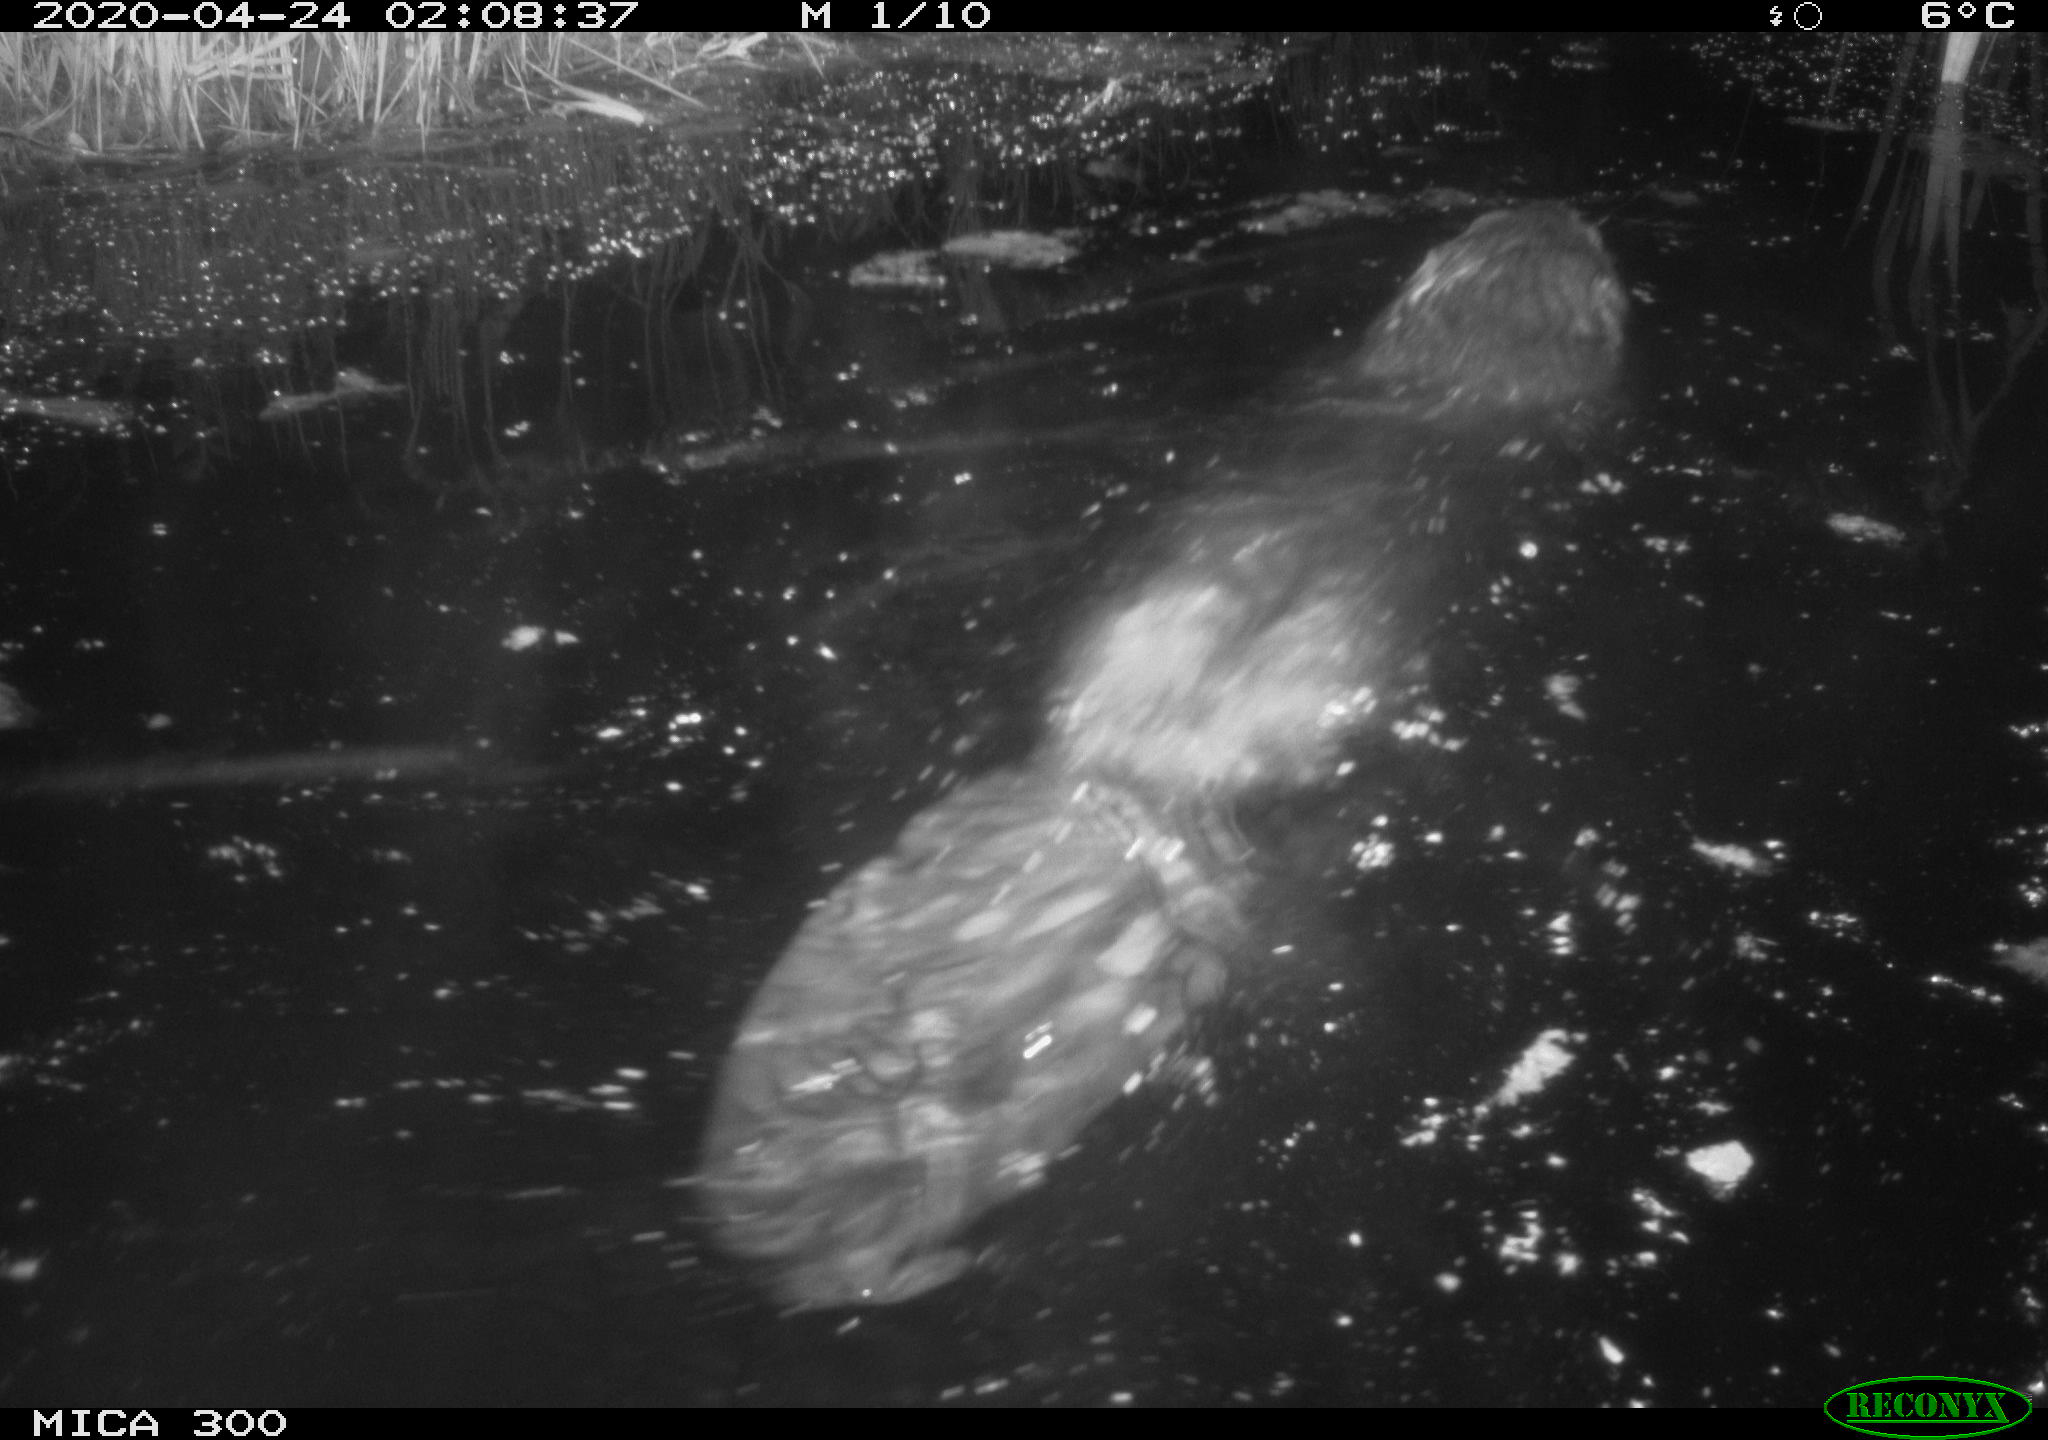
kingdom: Animalia
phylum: Chordata
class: Mammalia
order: Rodentia
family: Castoridae
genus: Castor
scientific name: Castor fiber
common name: Eurasian beaver
